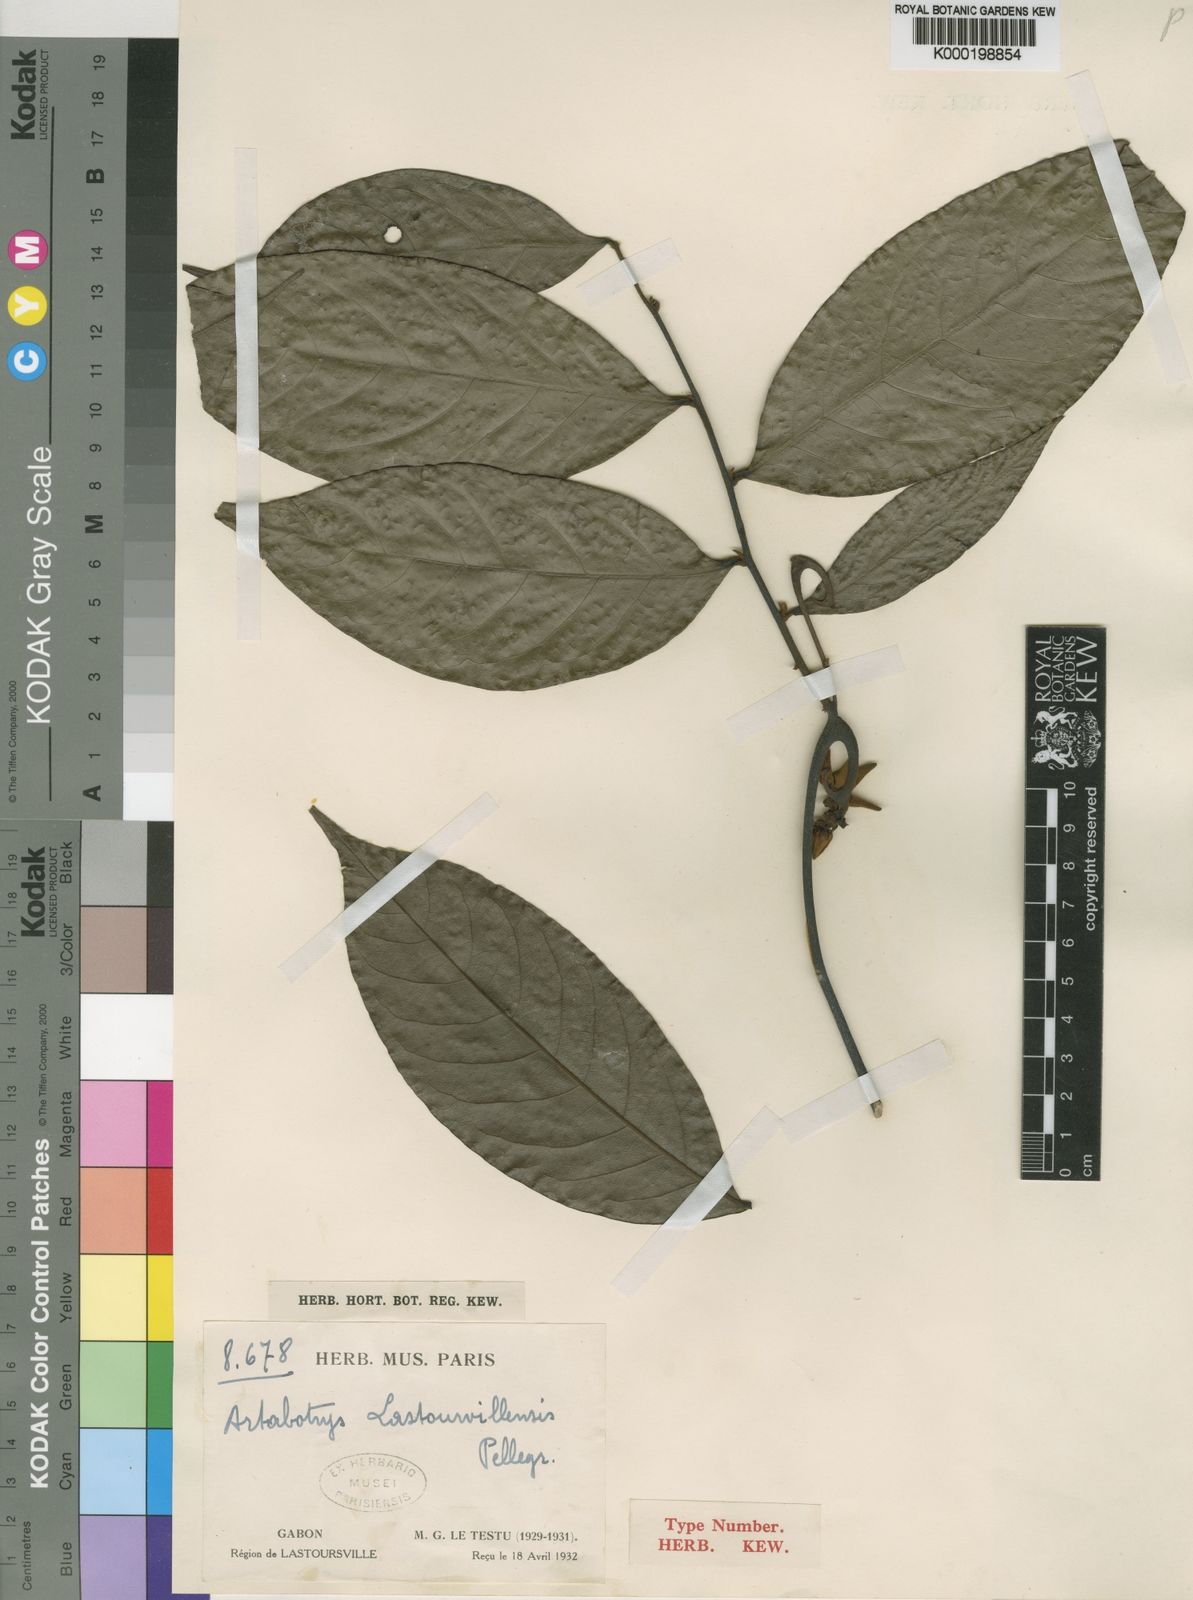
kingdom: Plantae
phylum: Tracheophyta
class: Magnoliopsida
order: Magnoliales
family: Annonaceae
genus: Artabotrys
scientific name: Artabotrys lastoursvillensis
